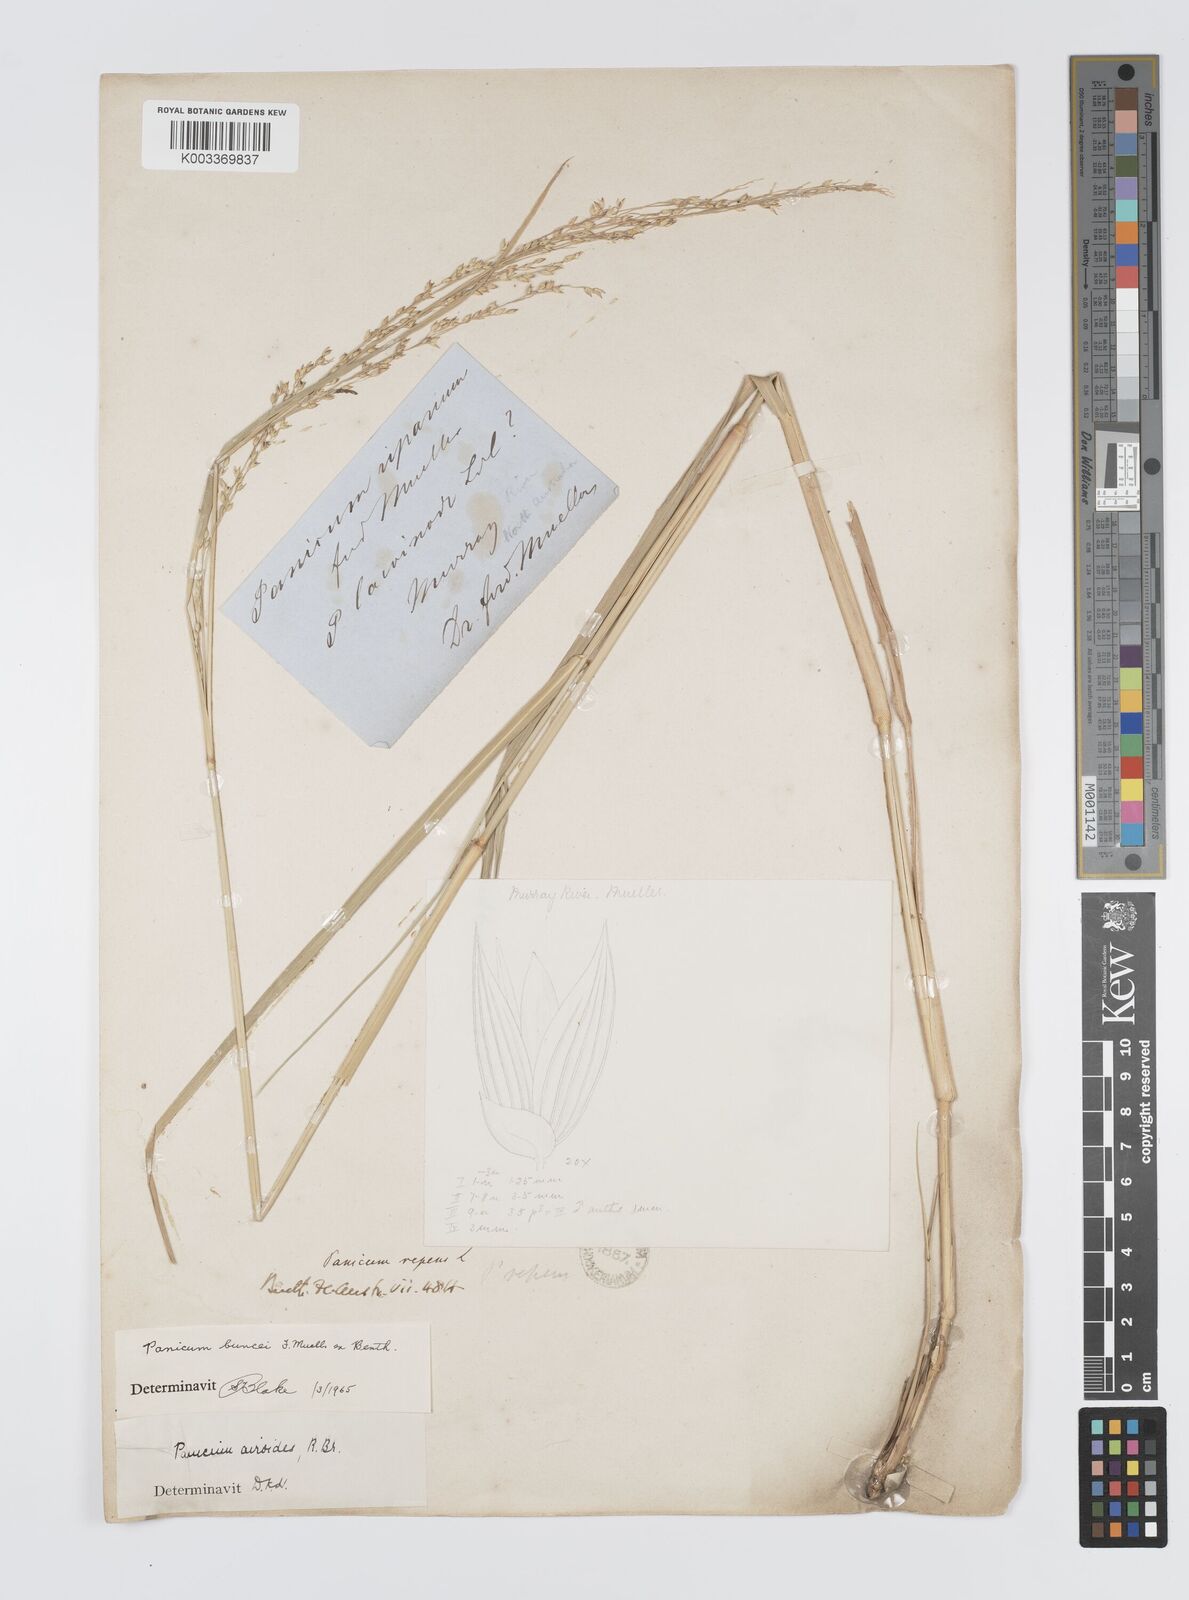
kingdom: Plantae
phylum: Tracheophyta
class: Liliopsida
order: Poales
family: Poaceae
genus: Panicum
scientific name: Panicum buncei
